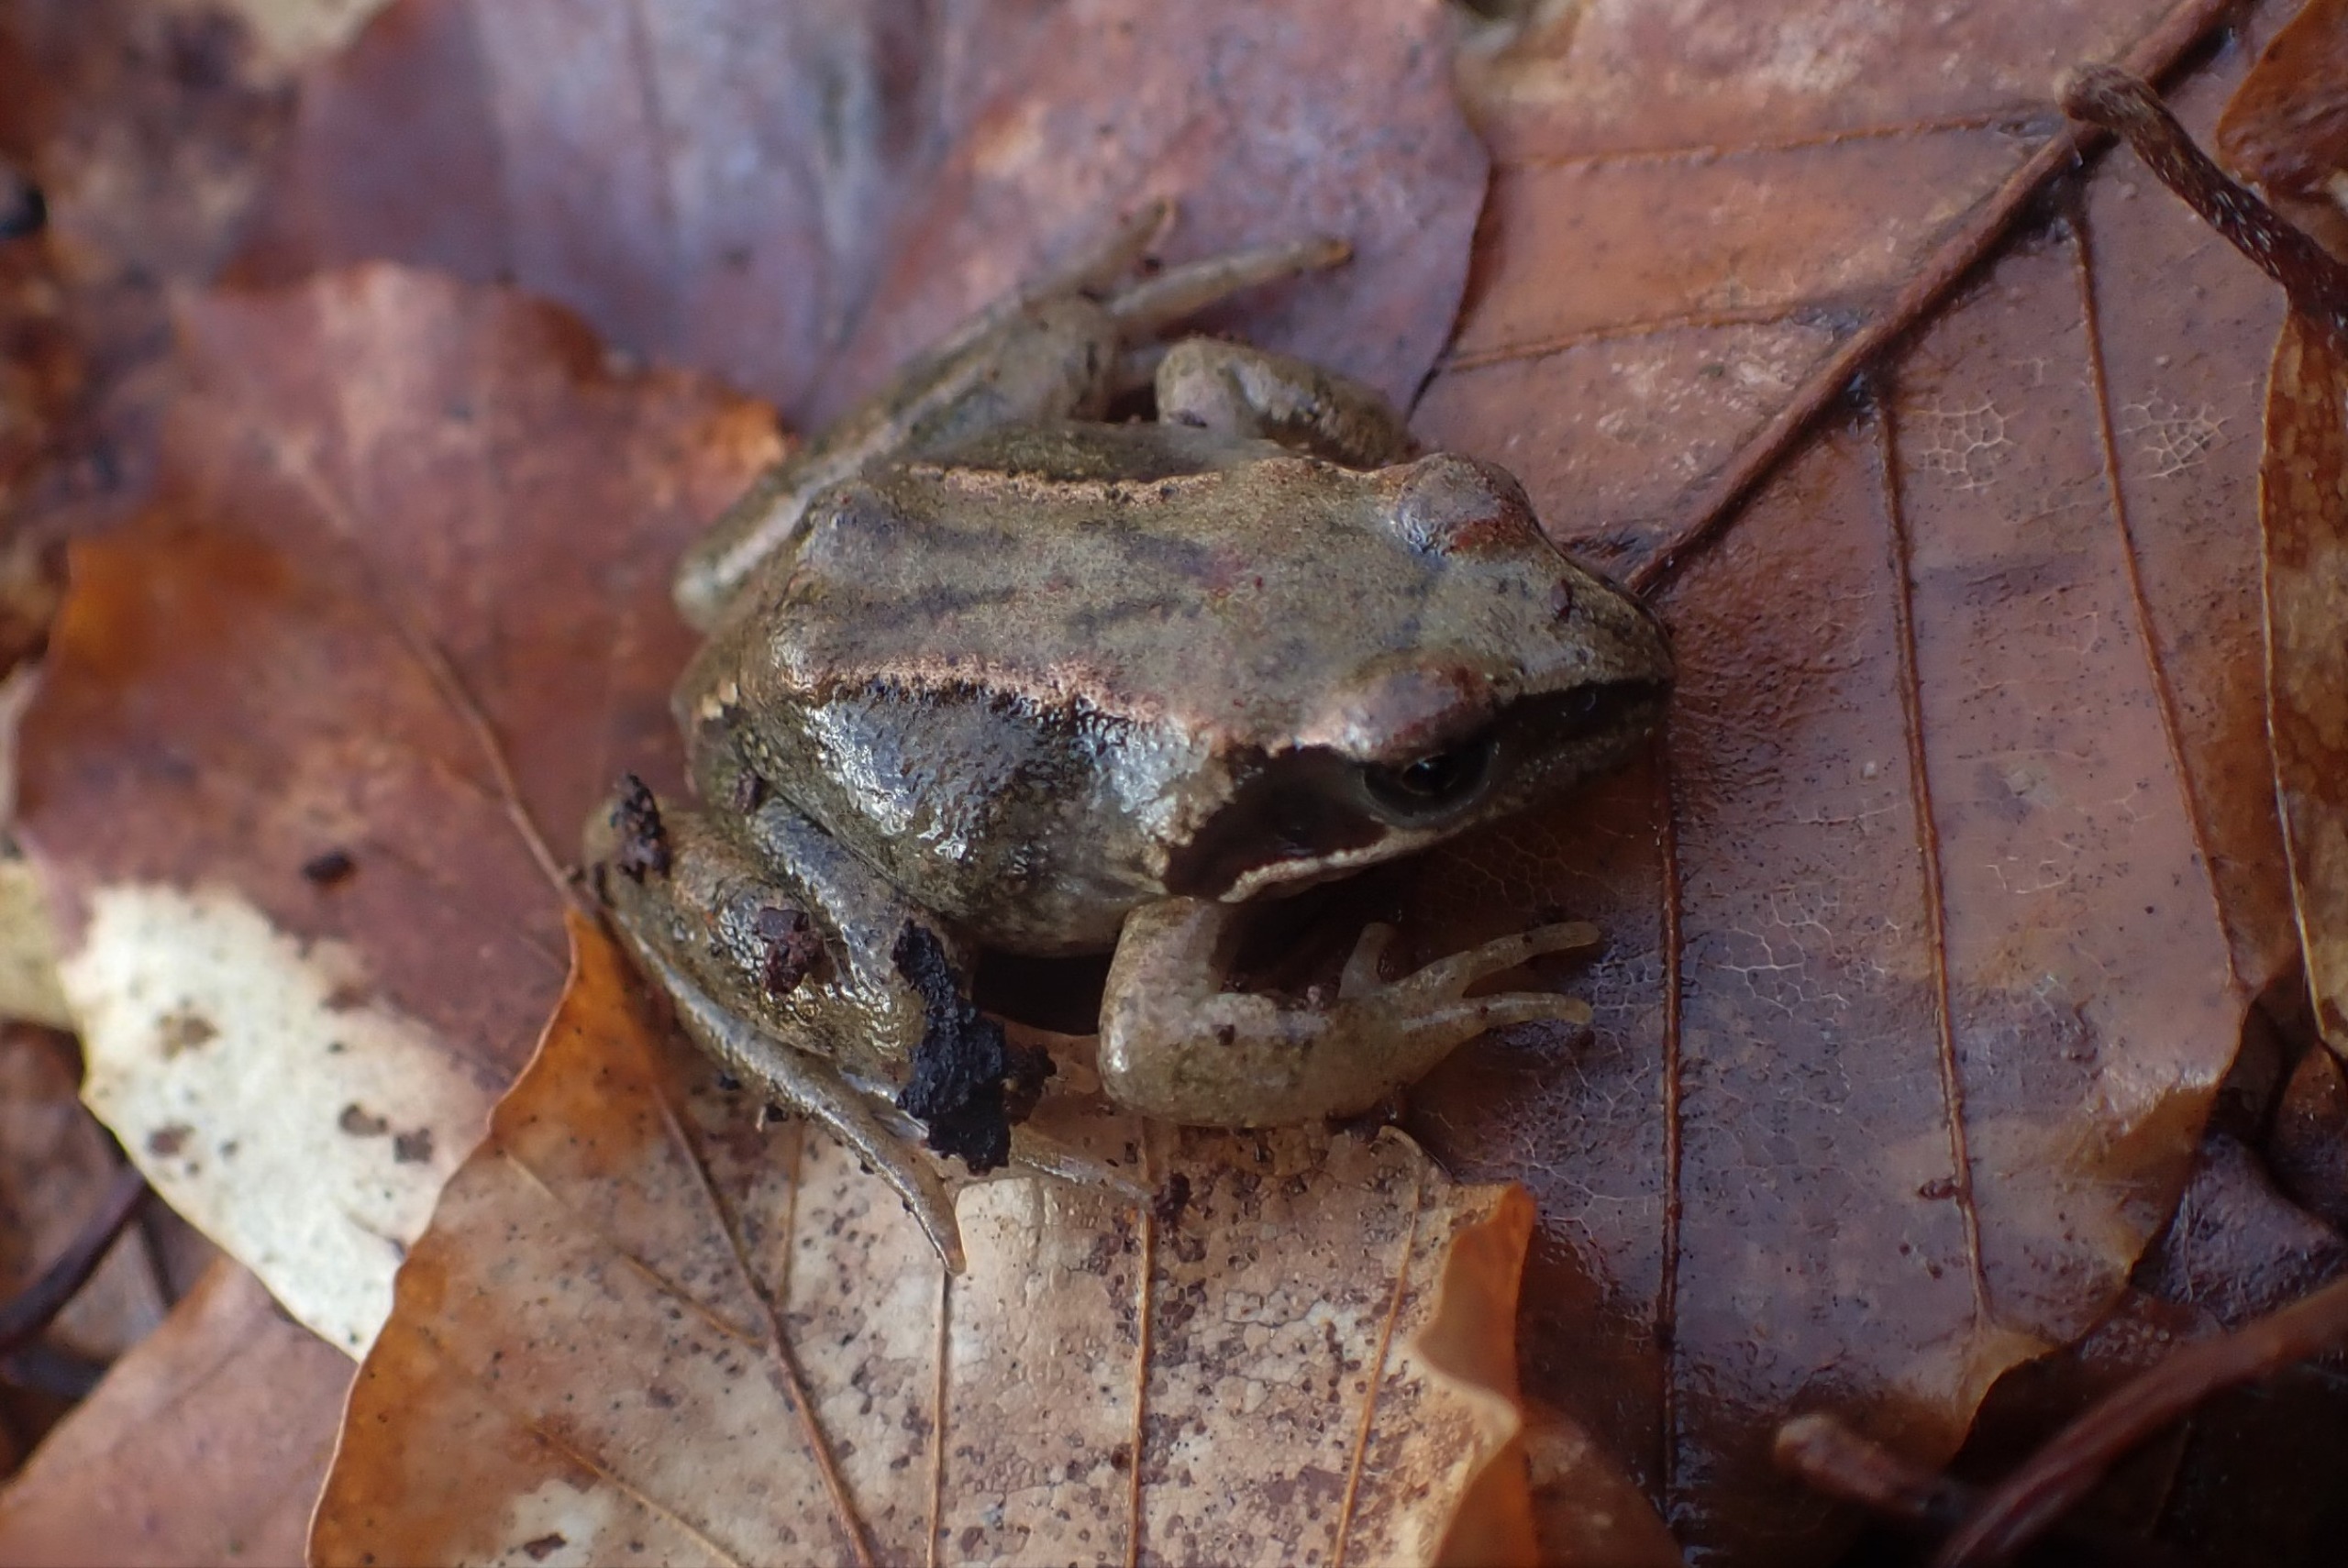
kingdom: Animalia
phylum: Chordata
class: Amphibia
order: Anura
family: Ranidae
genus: Rana
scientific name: Rana temporaria
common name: Butsnudet frø
